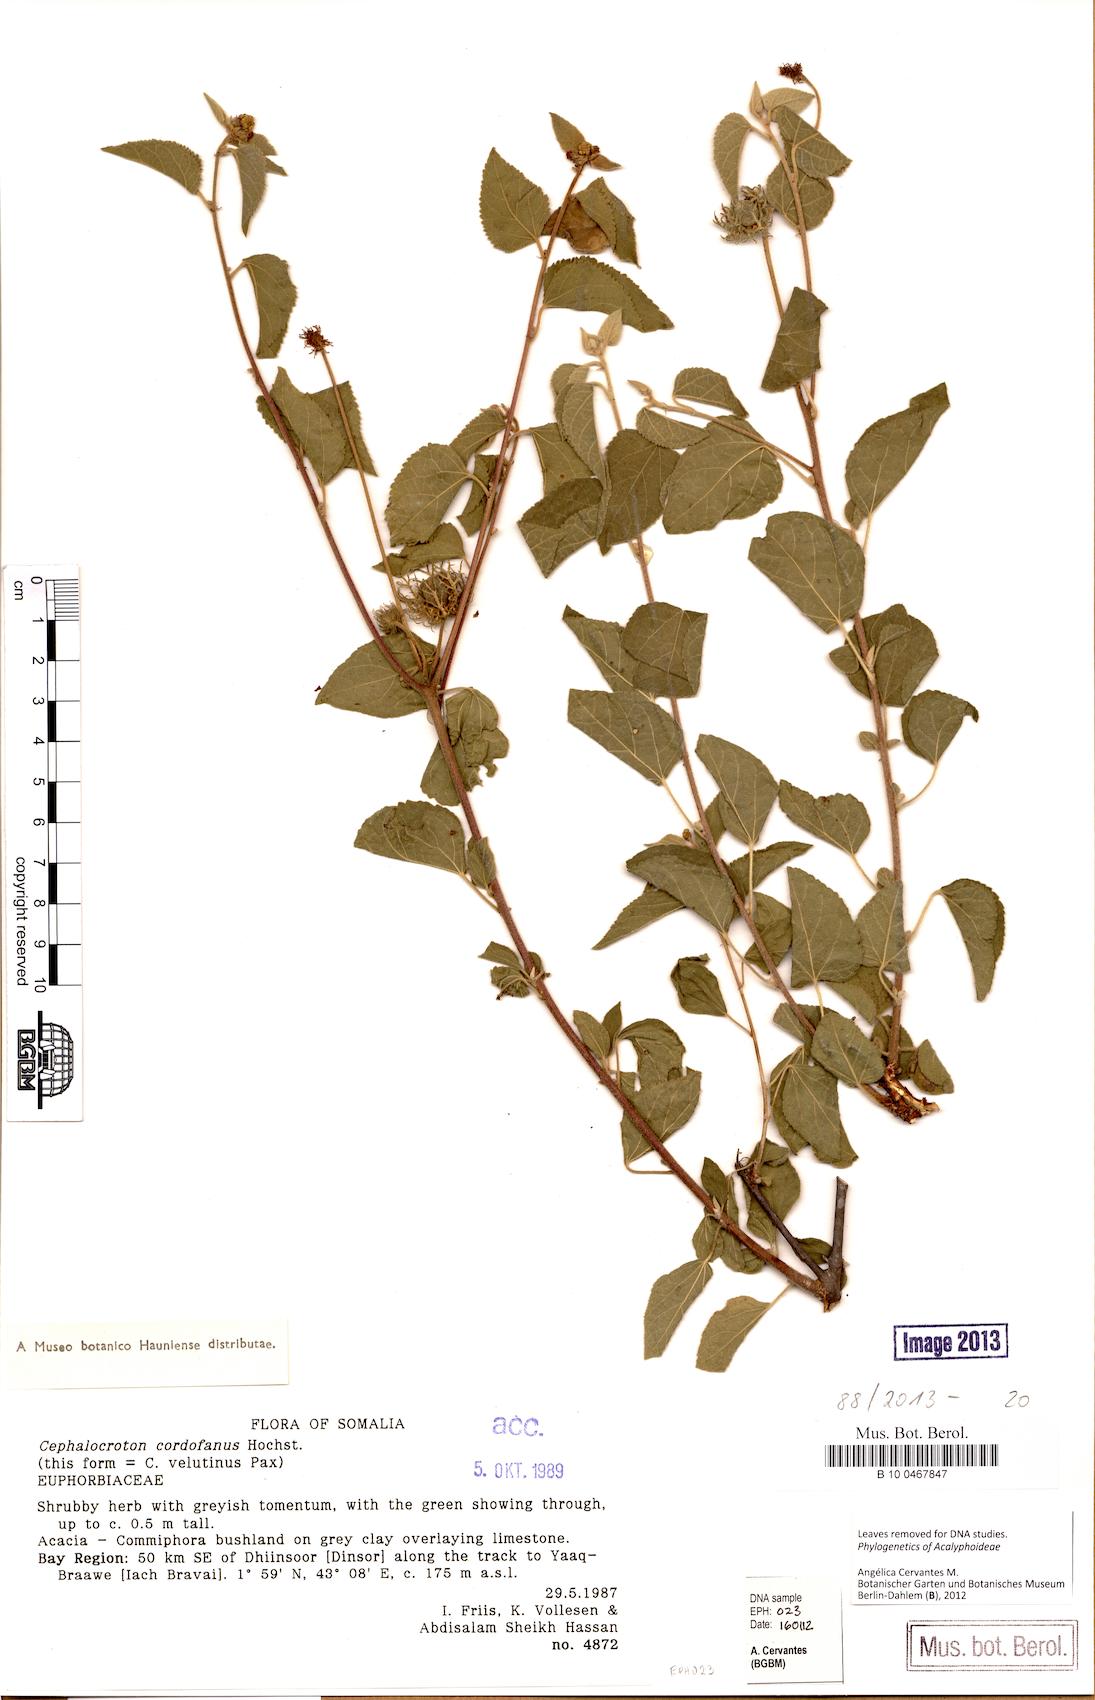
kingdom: Plantae
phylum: Tracheophyta
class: Magnoliopsida
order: Malpighiales
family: Euphorbiaceae
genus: Cephalocroton
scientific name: Cephalocroton cordofanus
